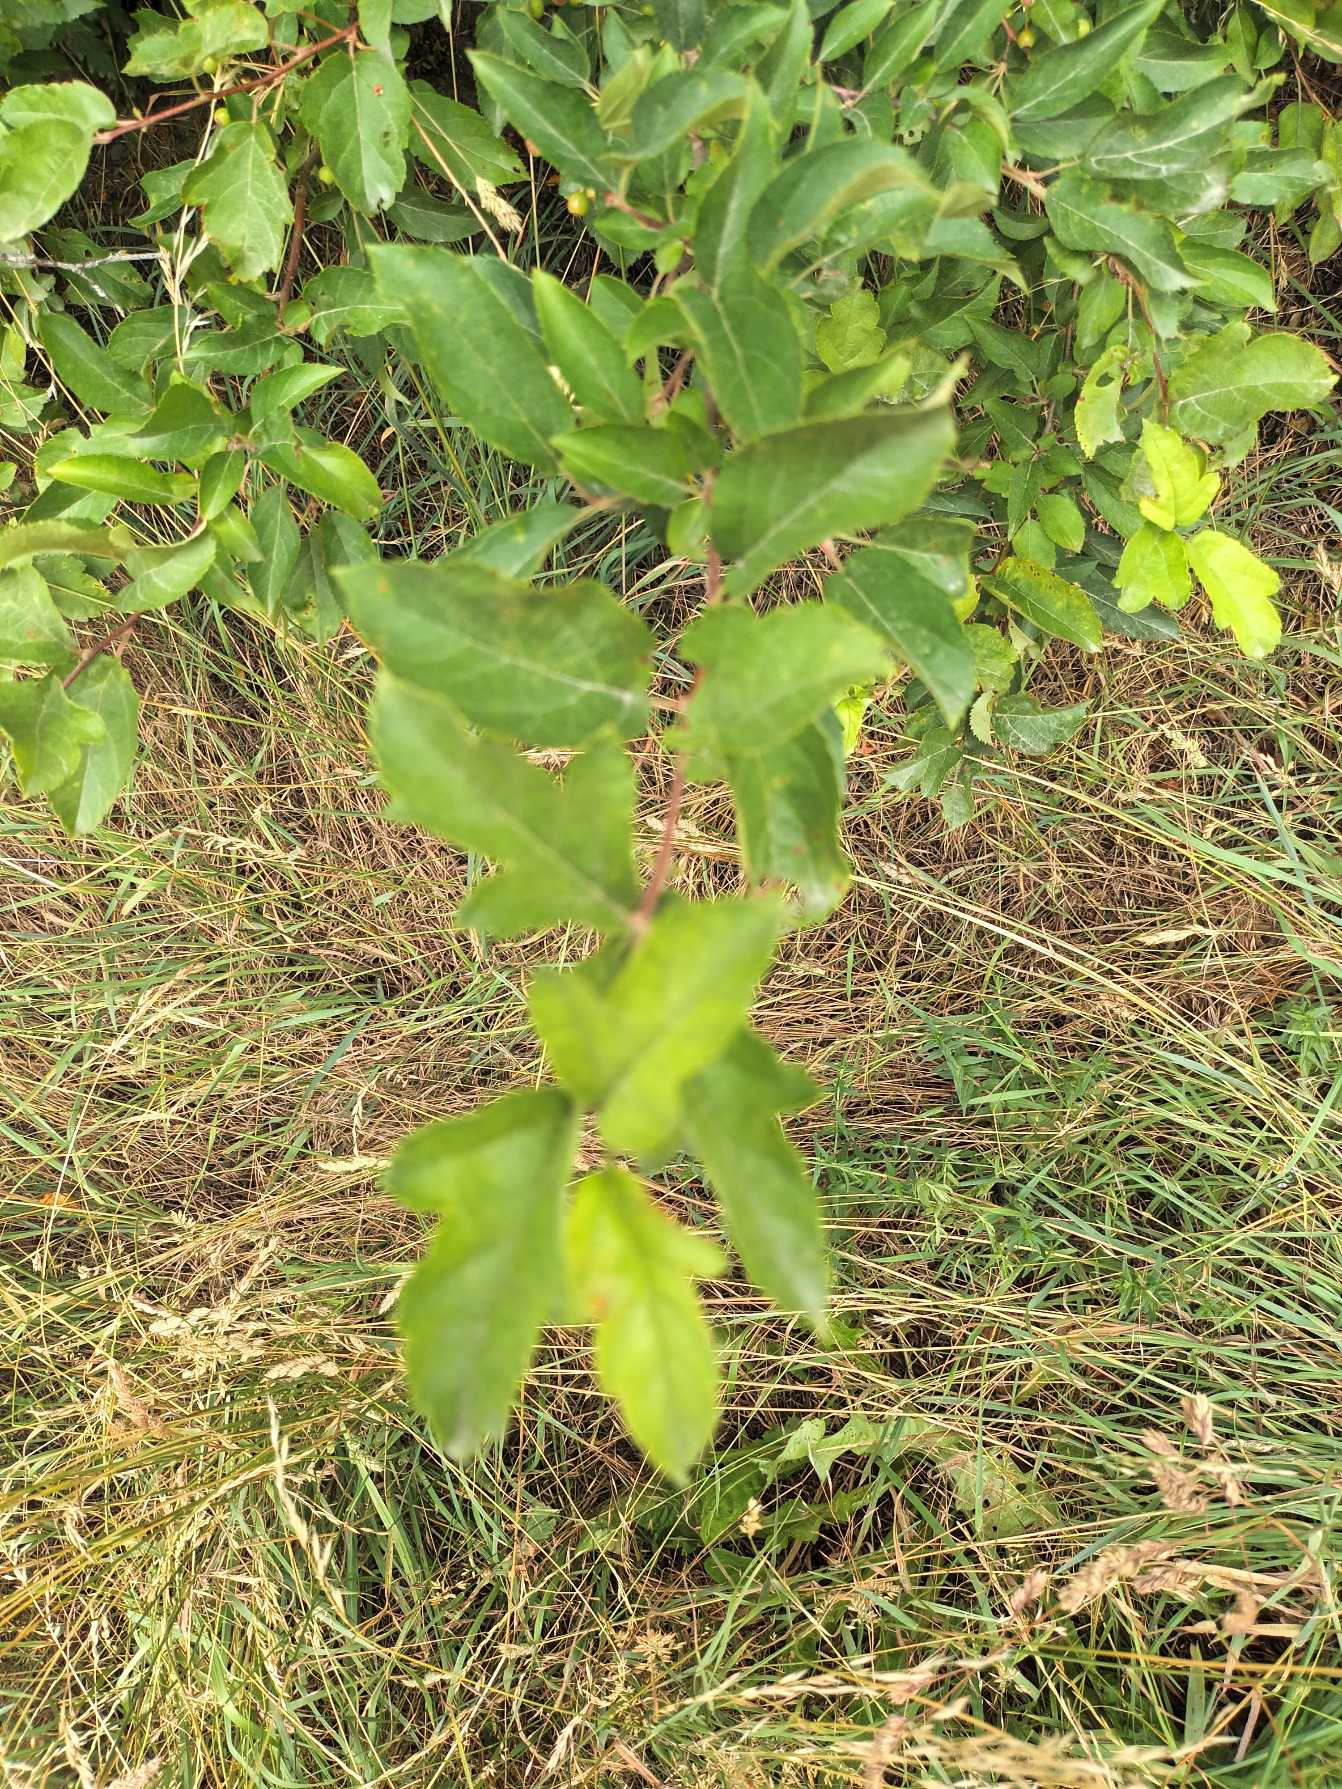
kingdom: Plantae
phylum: Tracheophyta
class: Magnoliopsida
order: Rosales
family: Rosaceae
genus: Malus
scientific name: Malus toringo
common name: Sargents-æble
